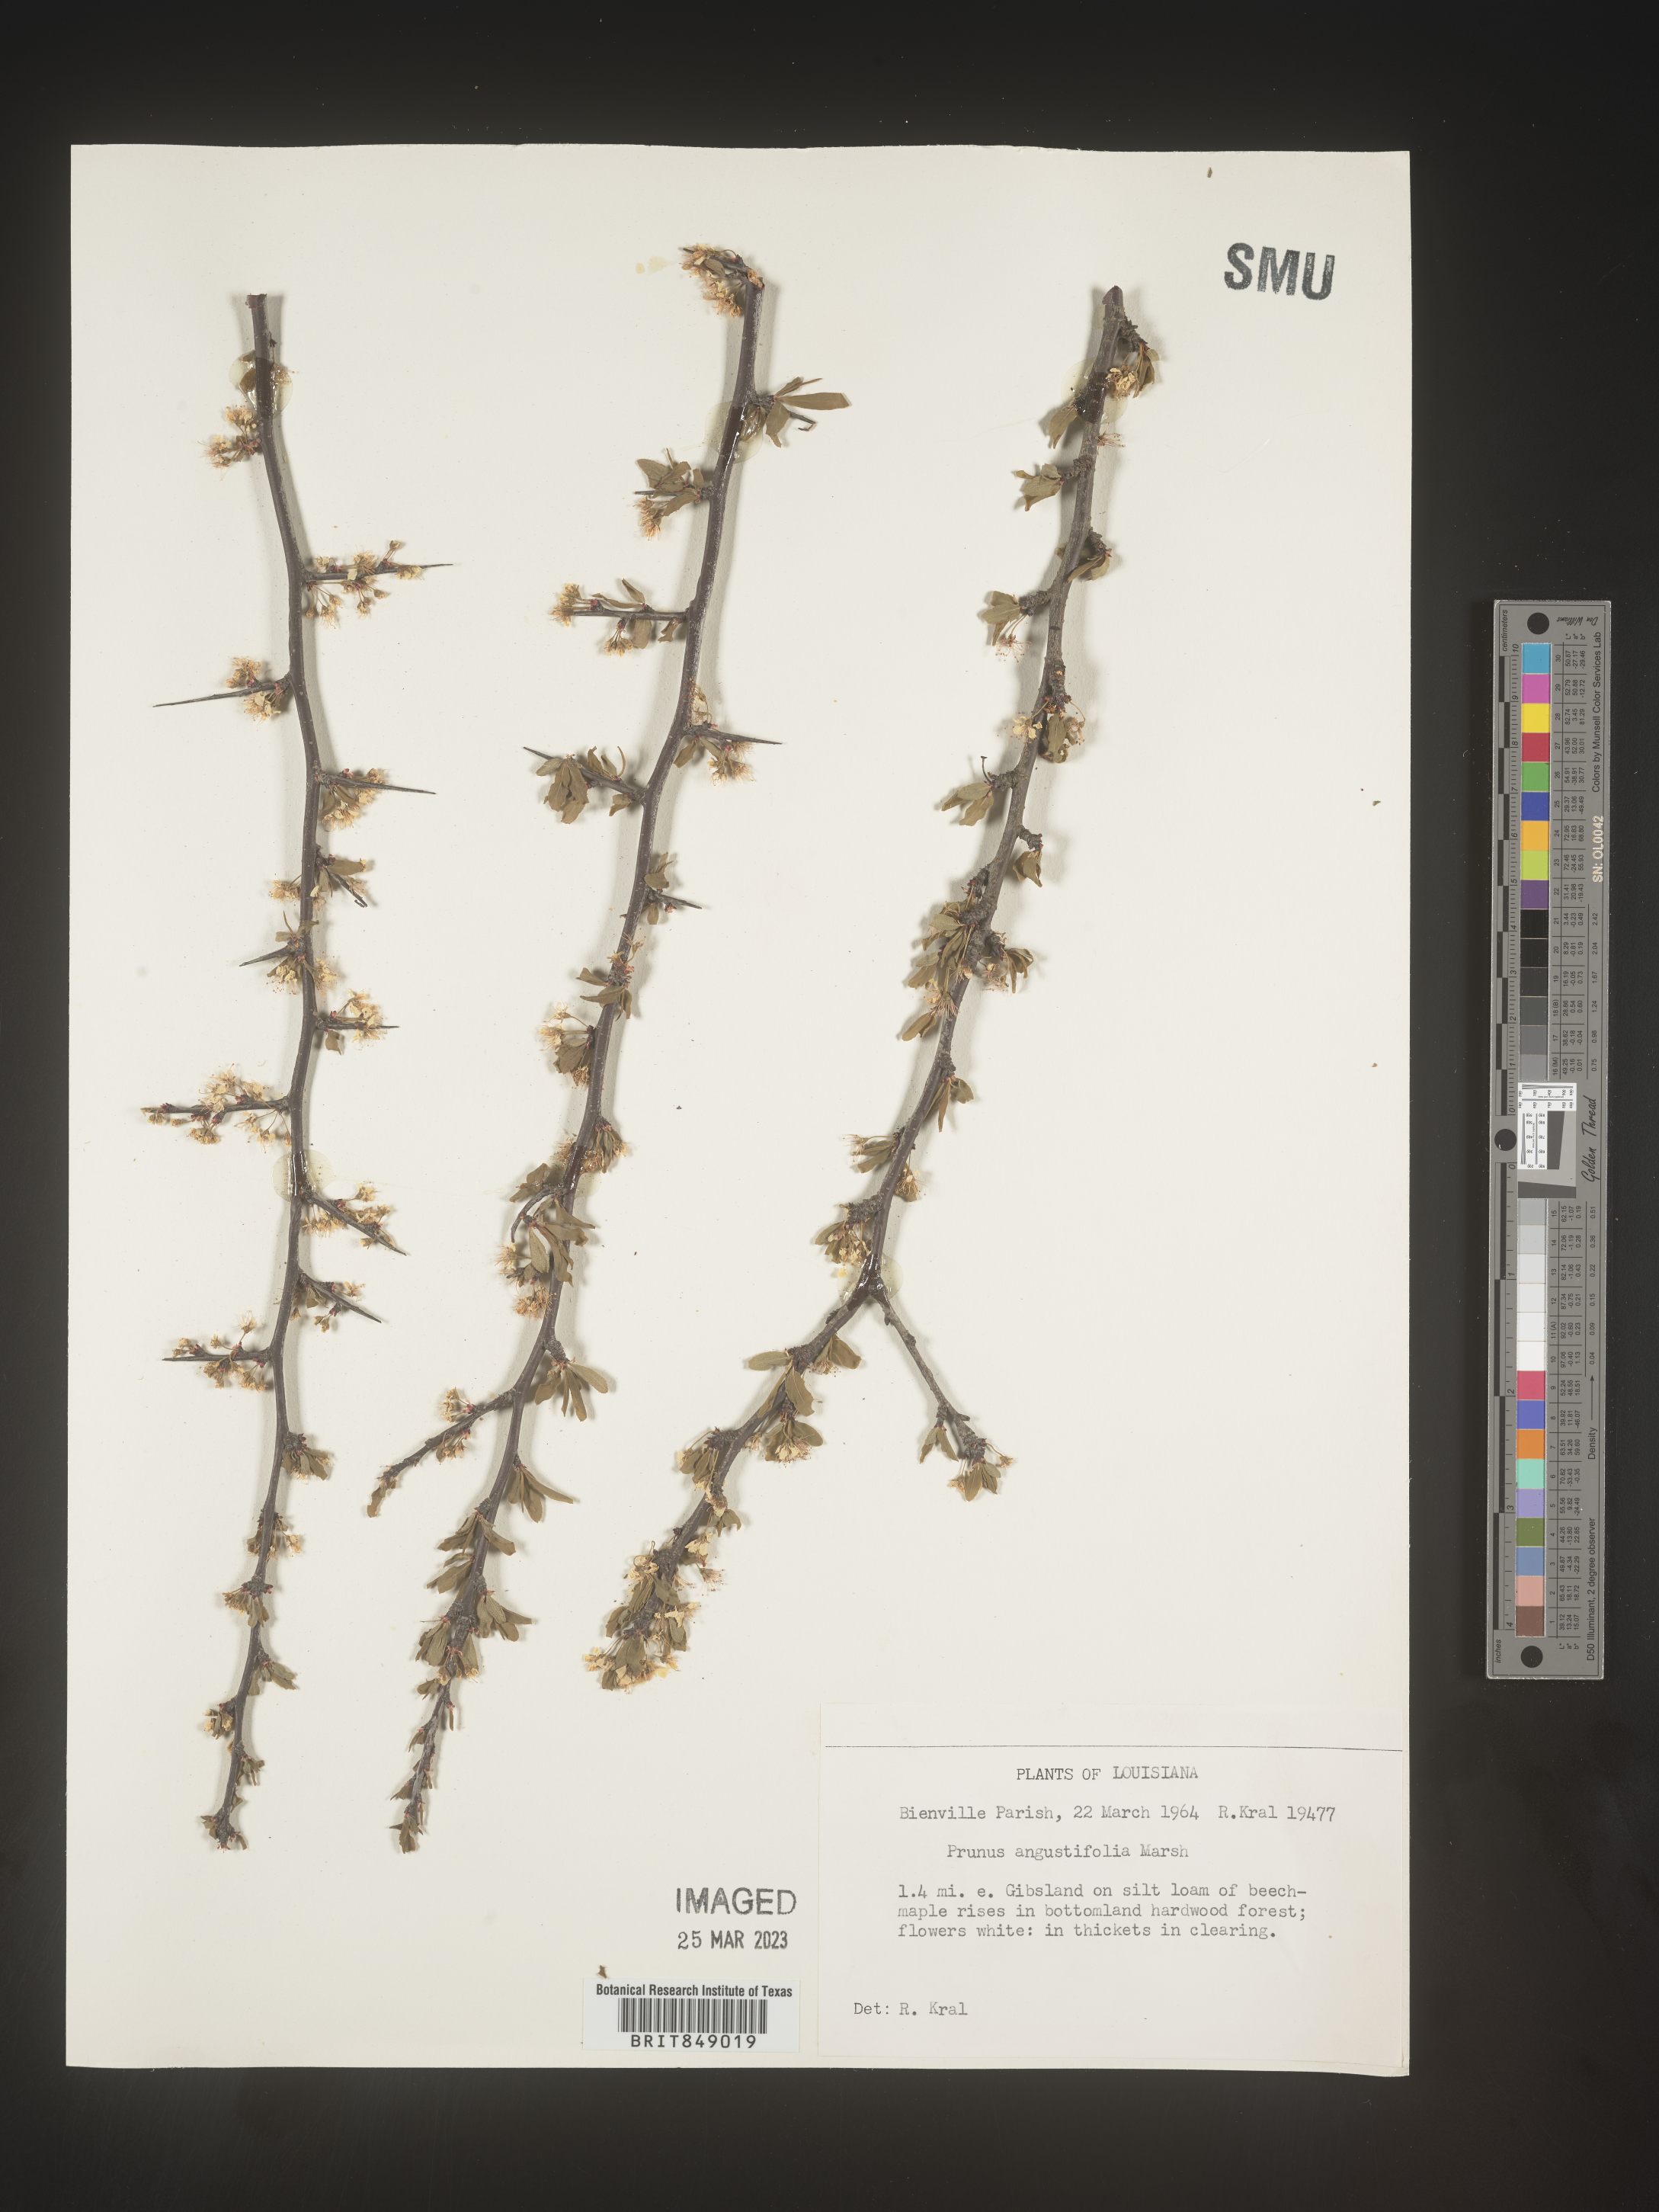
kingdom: Plantae
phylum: Tracheophyta
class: Magnoliopsida
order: Rosales
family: Rosaceae
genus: Prunus
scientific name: Prunus angustifolia
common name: Cherokee plum
